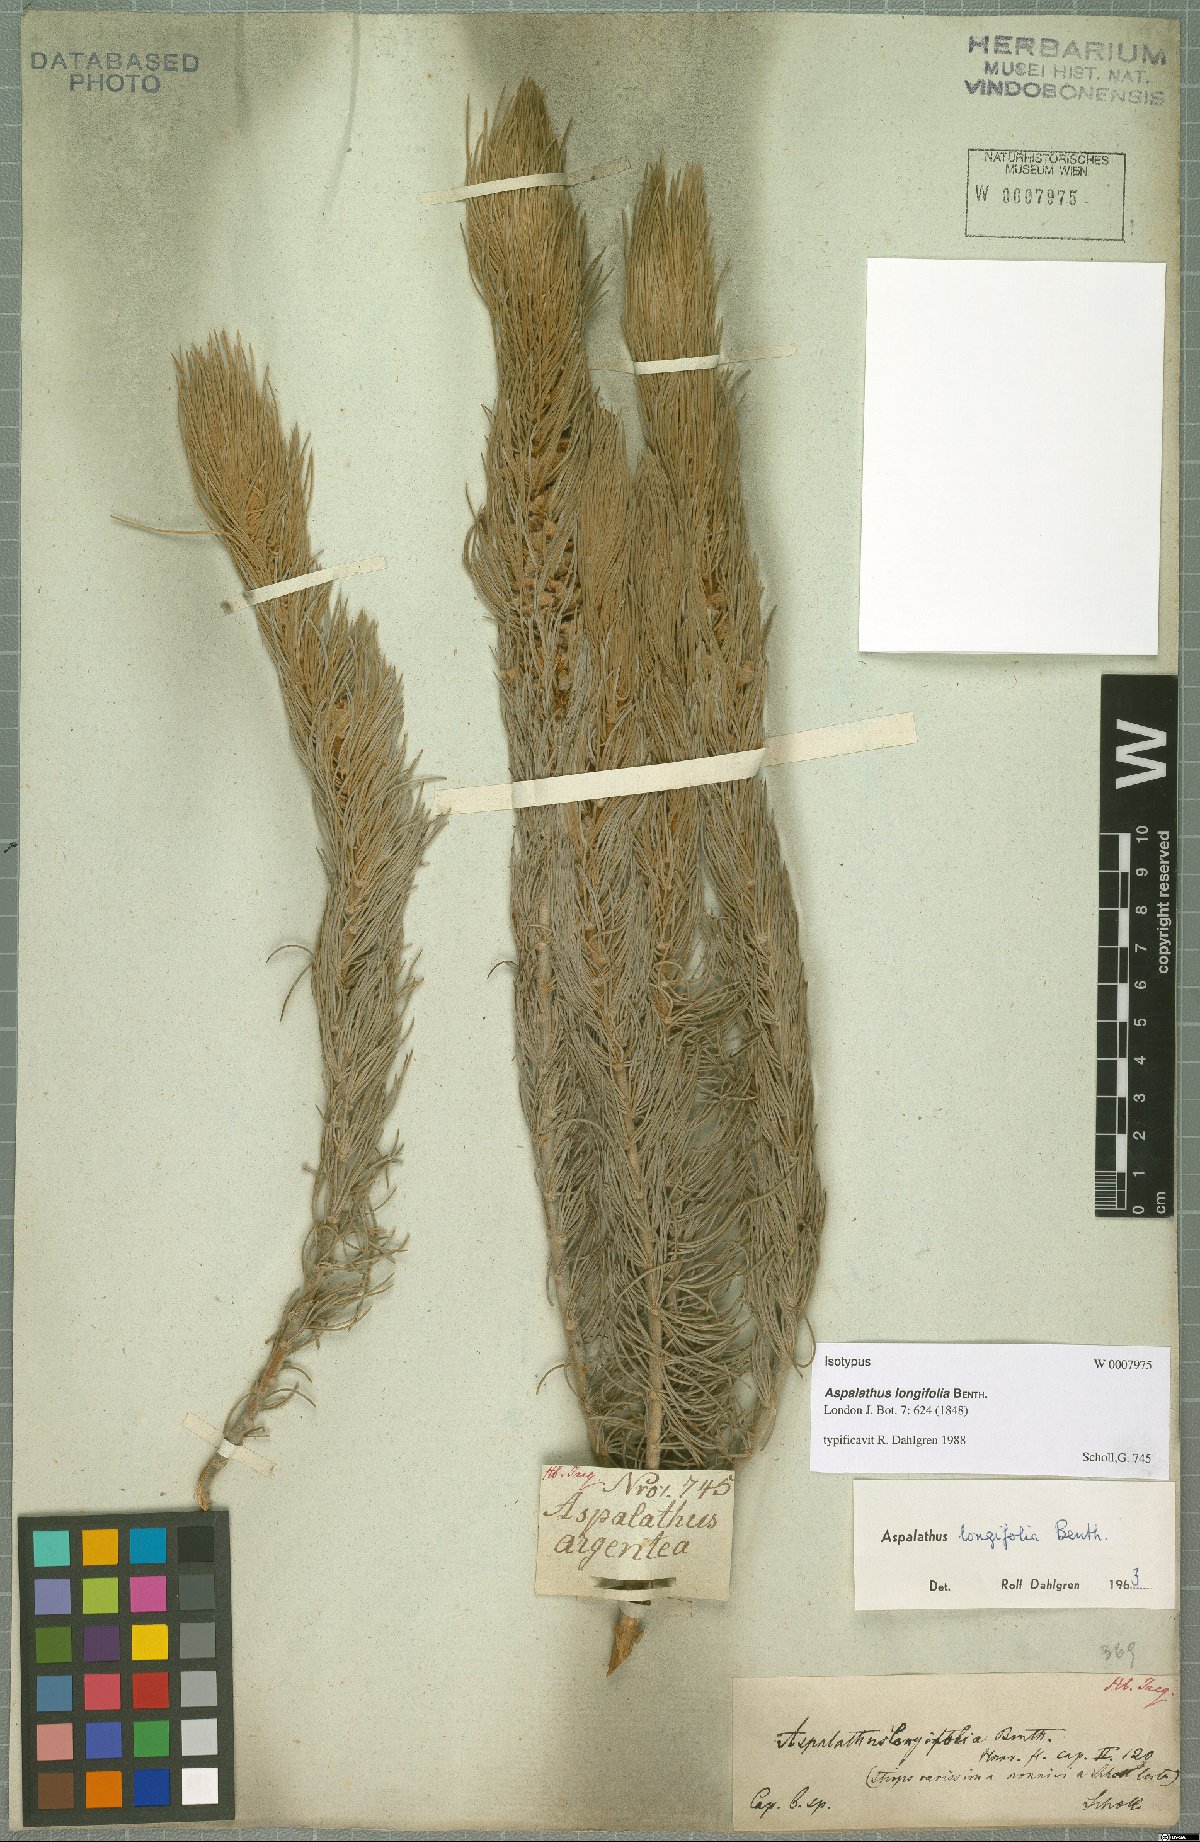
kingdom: Plantae
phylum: Tracheophyta
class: Magnoliopsida
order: Fabales
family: Fabaceae
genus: Aspalathus
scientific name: Aspalathus longifolia
